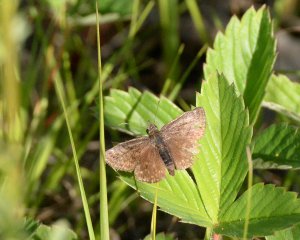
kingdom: Animalia
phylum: Arthropoda
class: Insecta
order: Lepidoptera
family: Hesperiidae
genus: Erynnis
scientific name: Erynnis icelus
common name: Dreamy Duskywing
